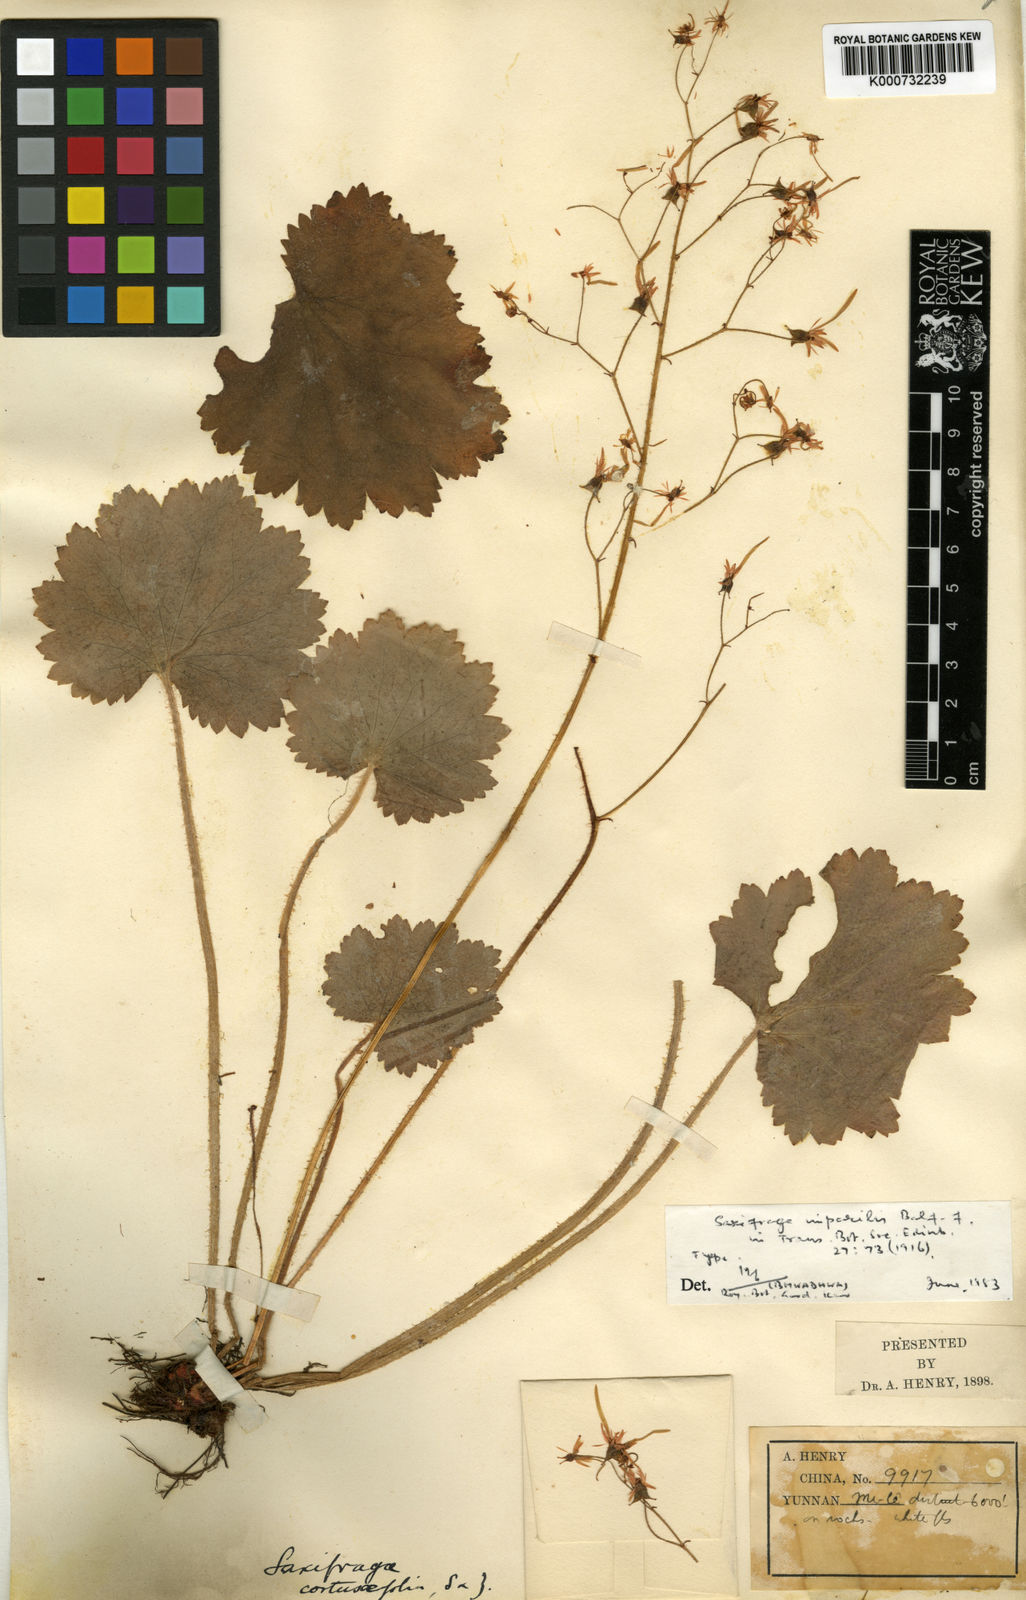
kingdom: Plantae
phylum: Tracheophyta
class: Magnoliopsida
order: Saxifragales
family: Saxifragaceae
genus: Saxifraga
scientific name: Saxifraga rufescens
